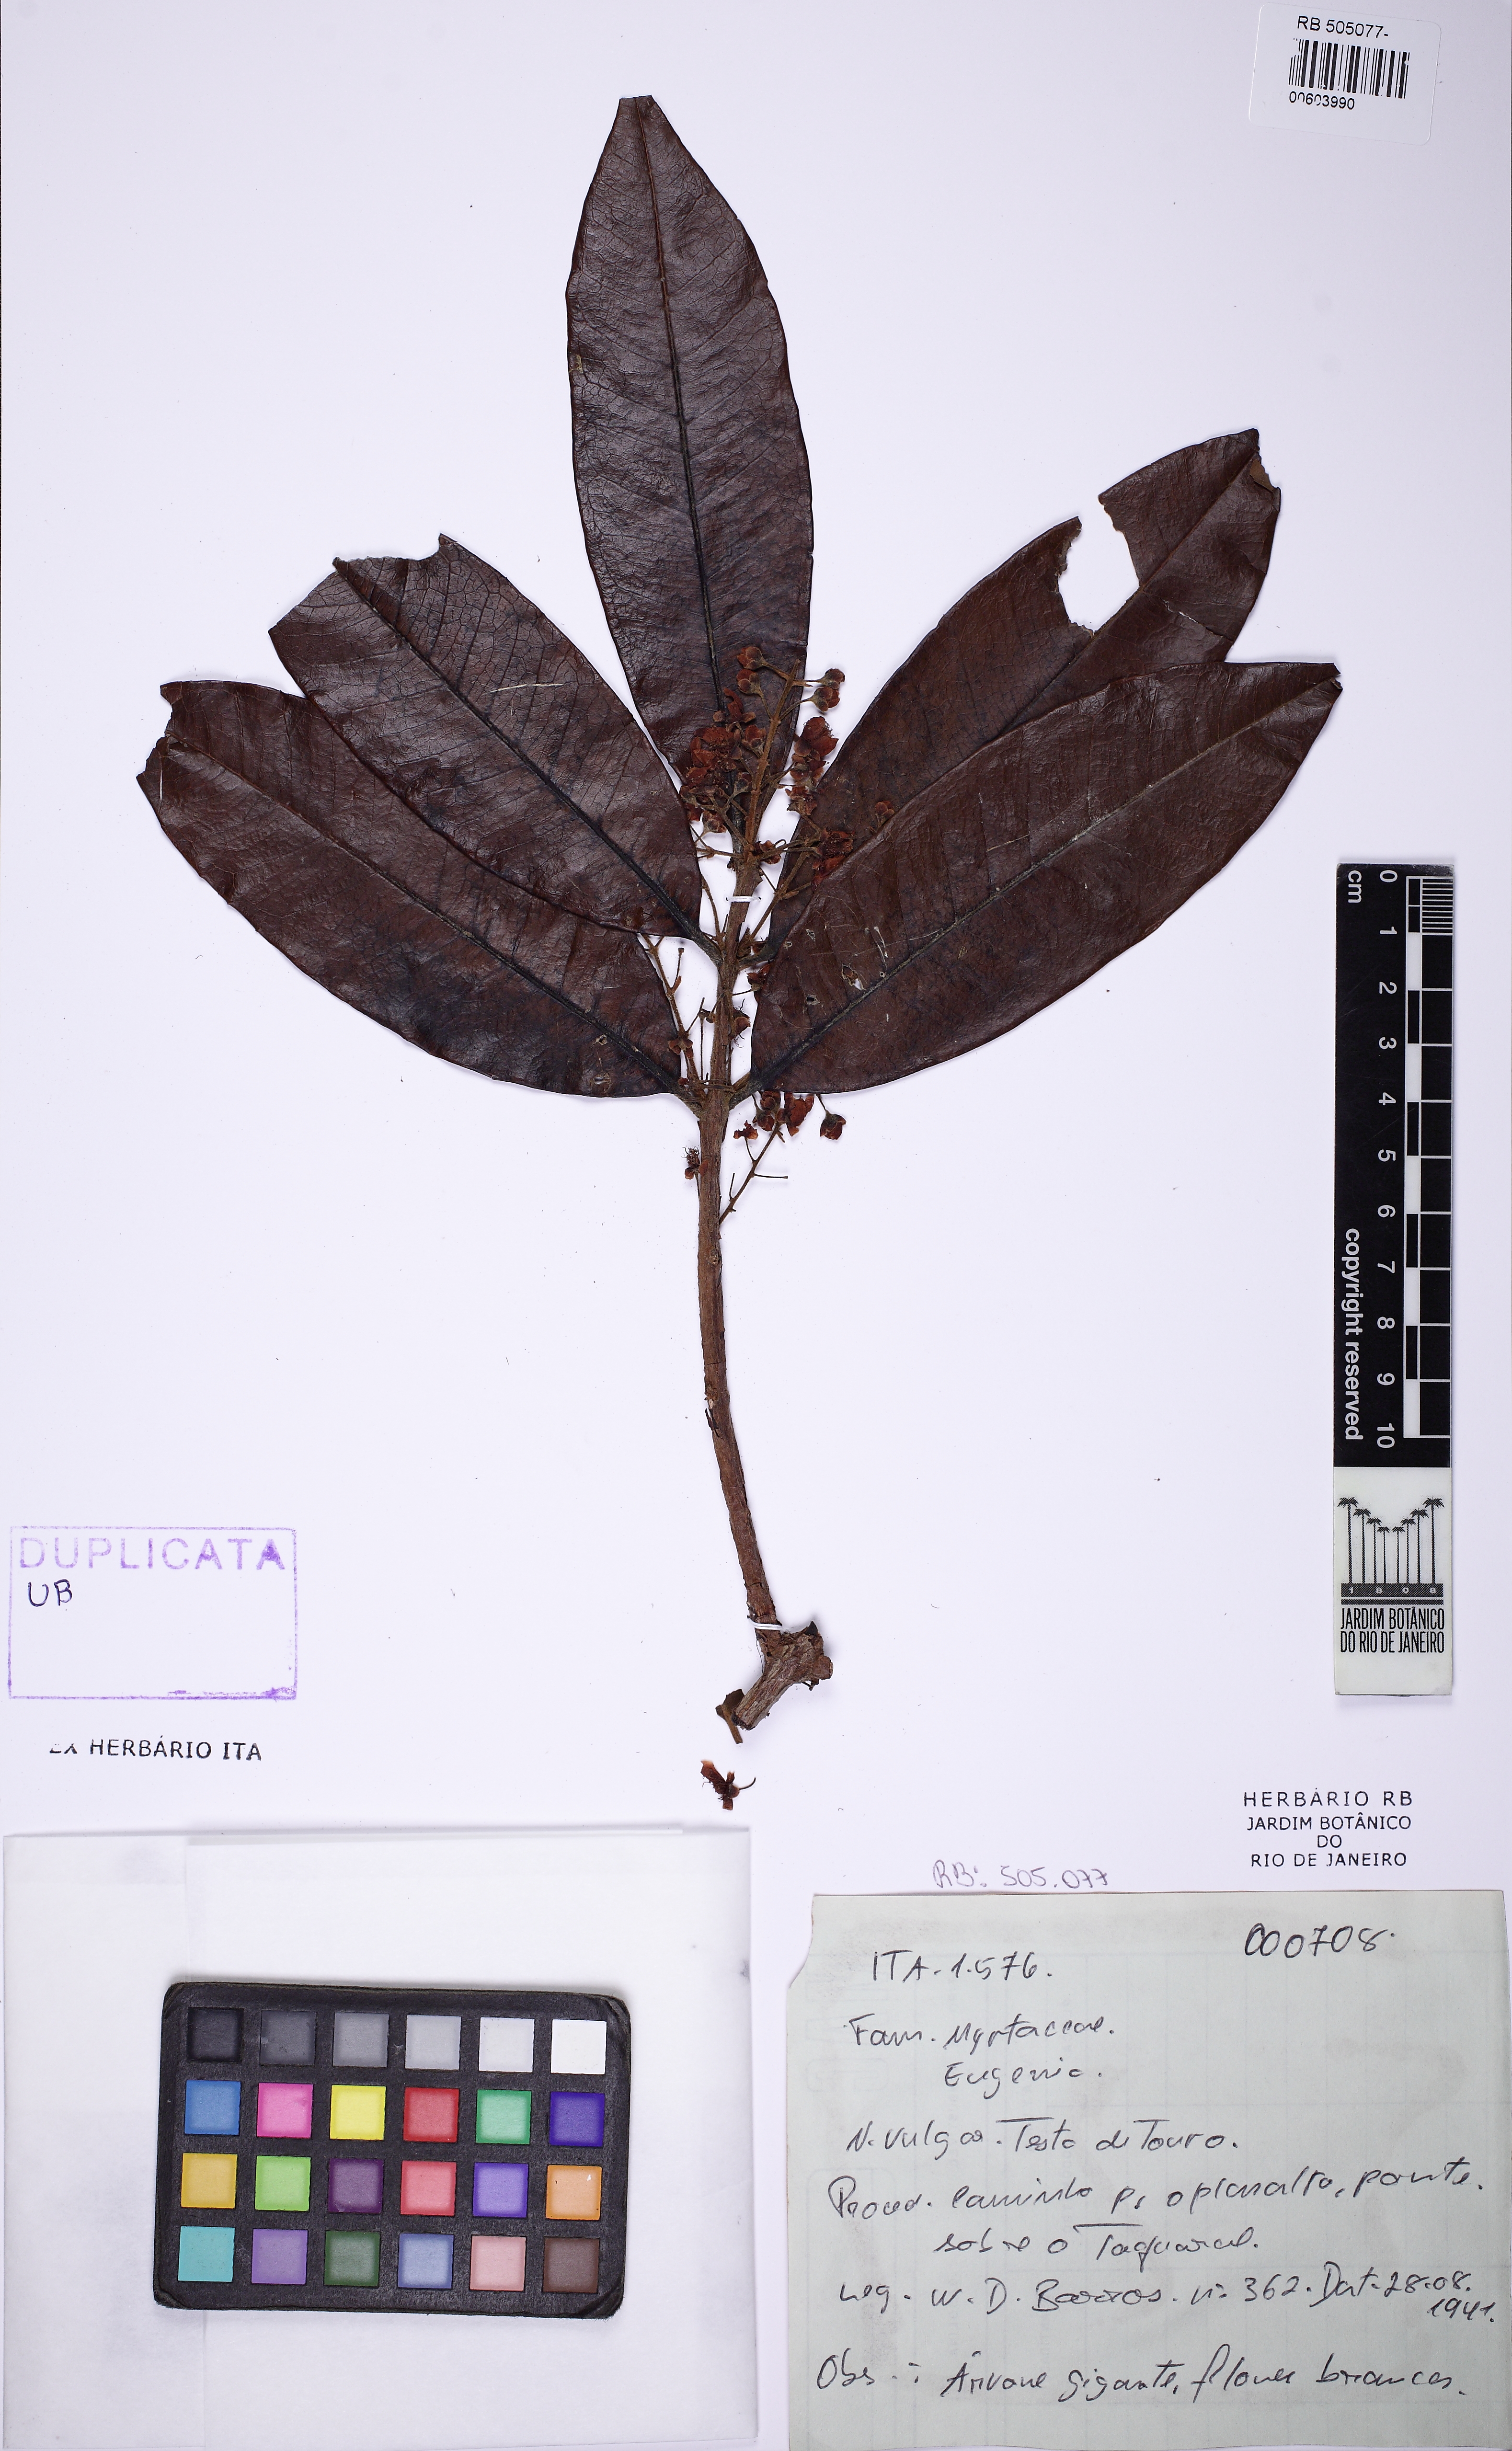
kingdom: Plantae
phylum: Tracheophyta
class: Magnoliopsida
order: Myrtales
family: Myrtaceae
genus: Eugenia
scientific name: Eugenia supraaxillaris
